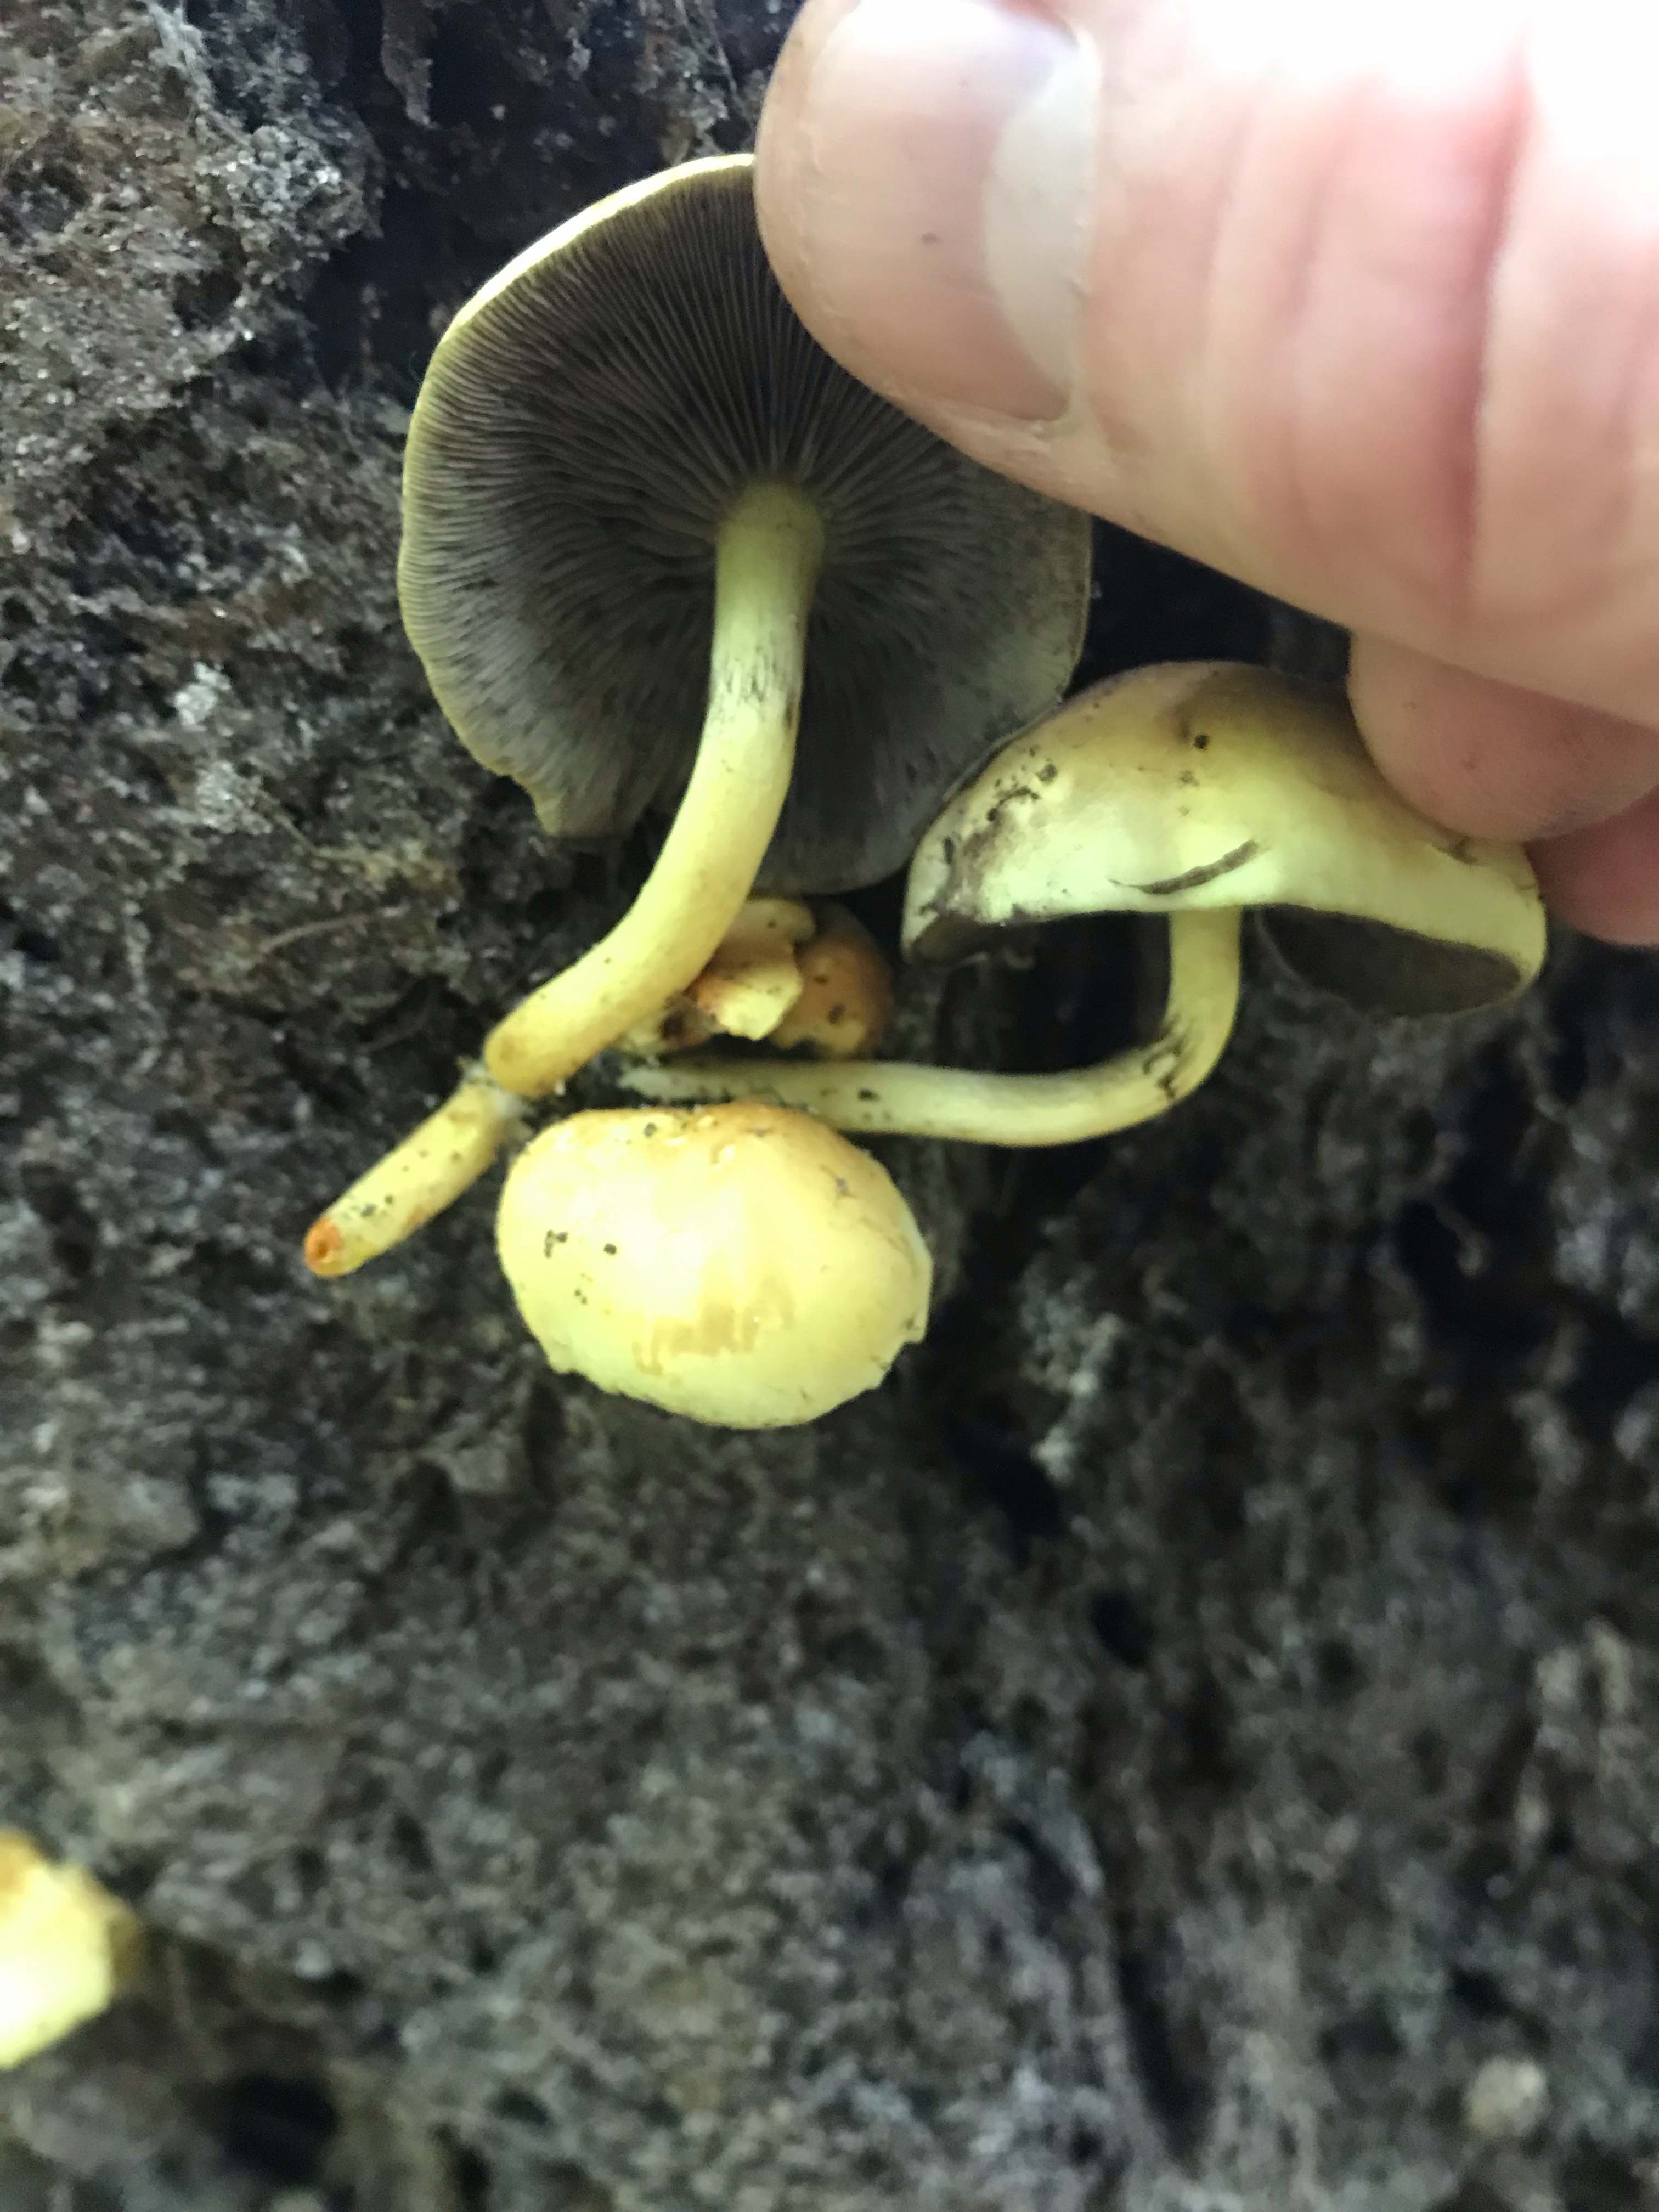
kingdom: Fungi
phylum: Basidiomycota
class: Agaricomycetes
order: Agaricales
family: Strophariaceae
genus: Hypholoma
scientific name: Hypholoma fasciculare
